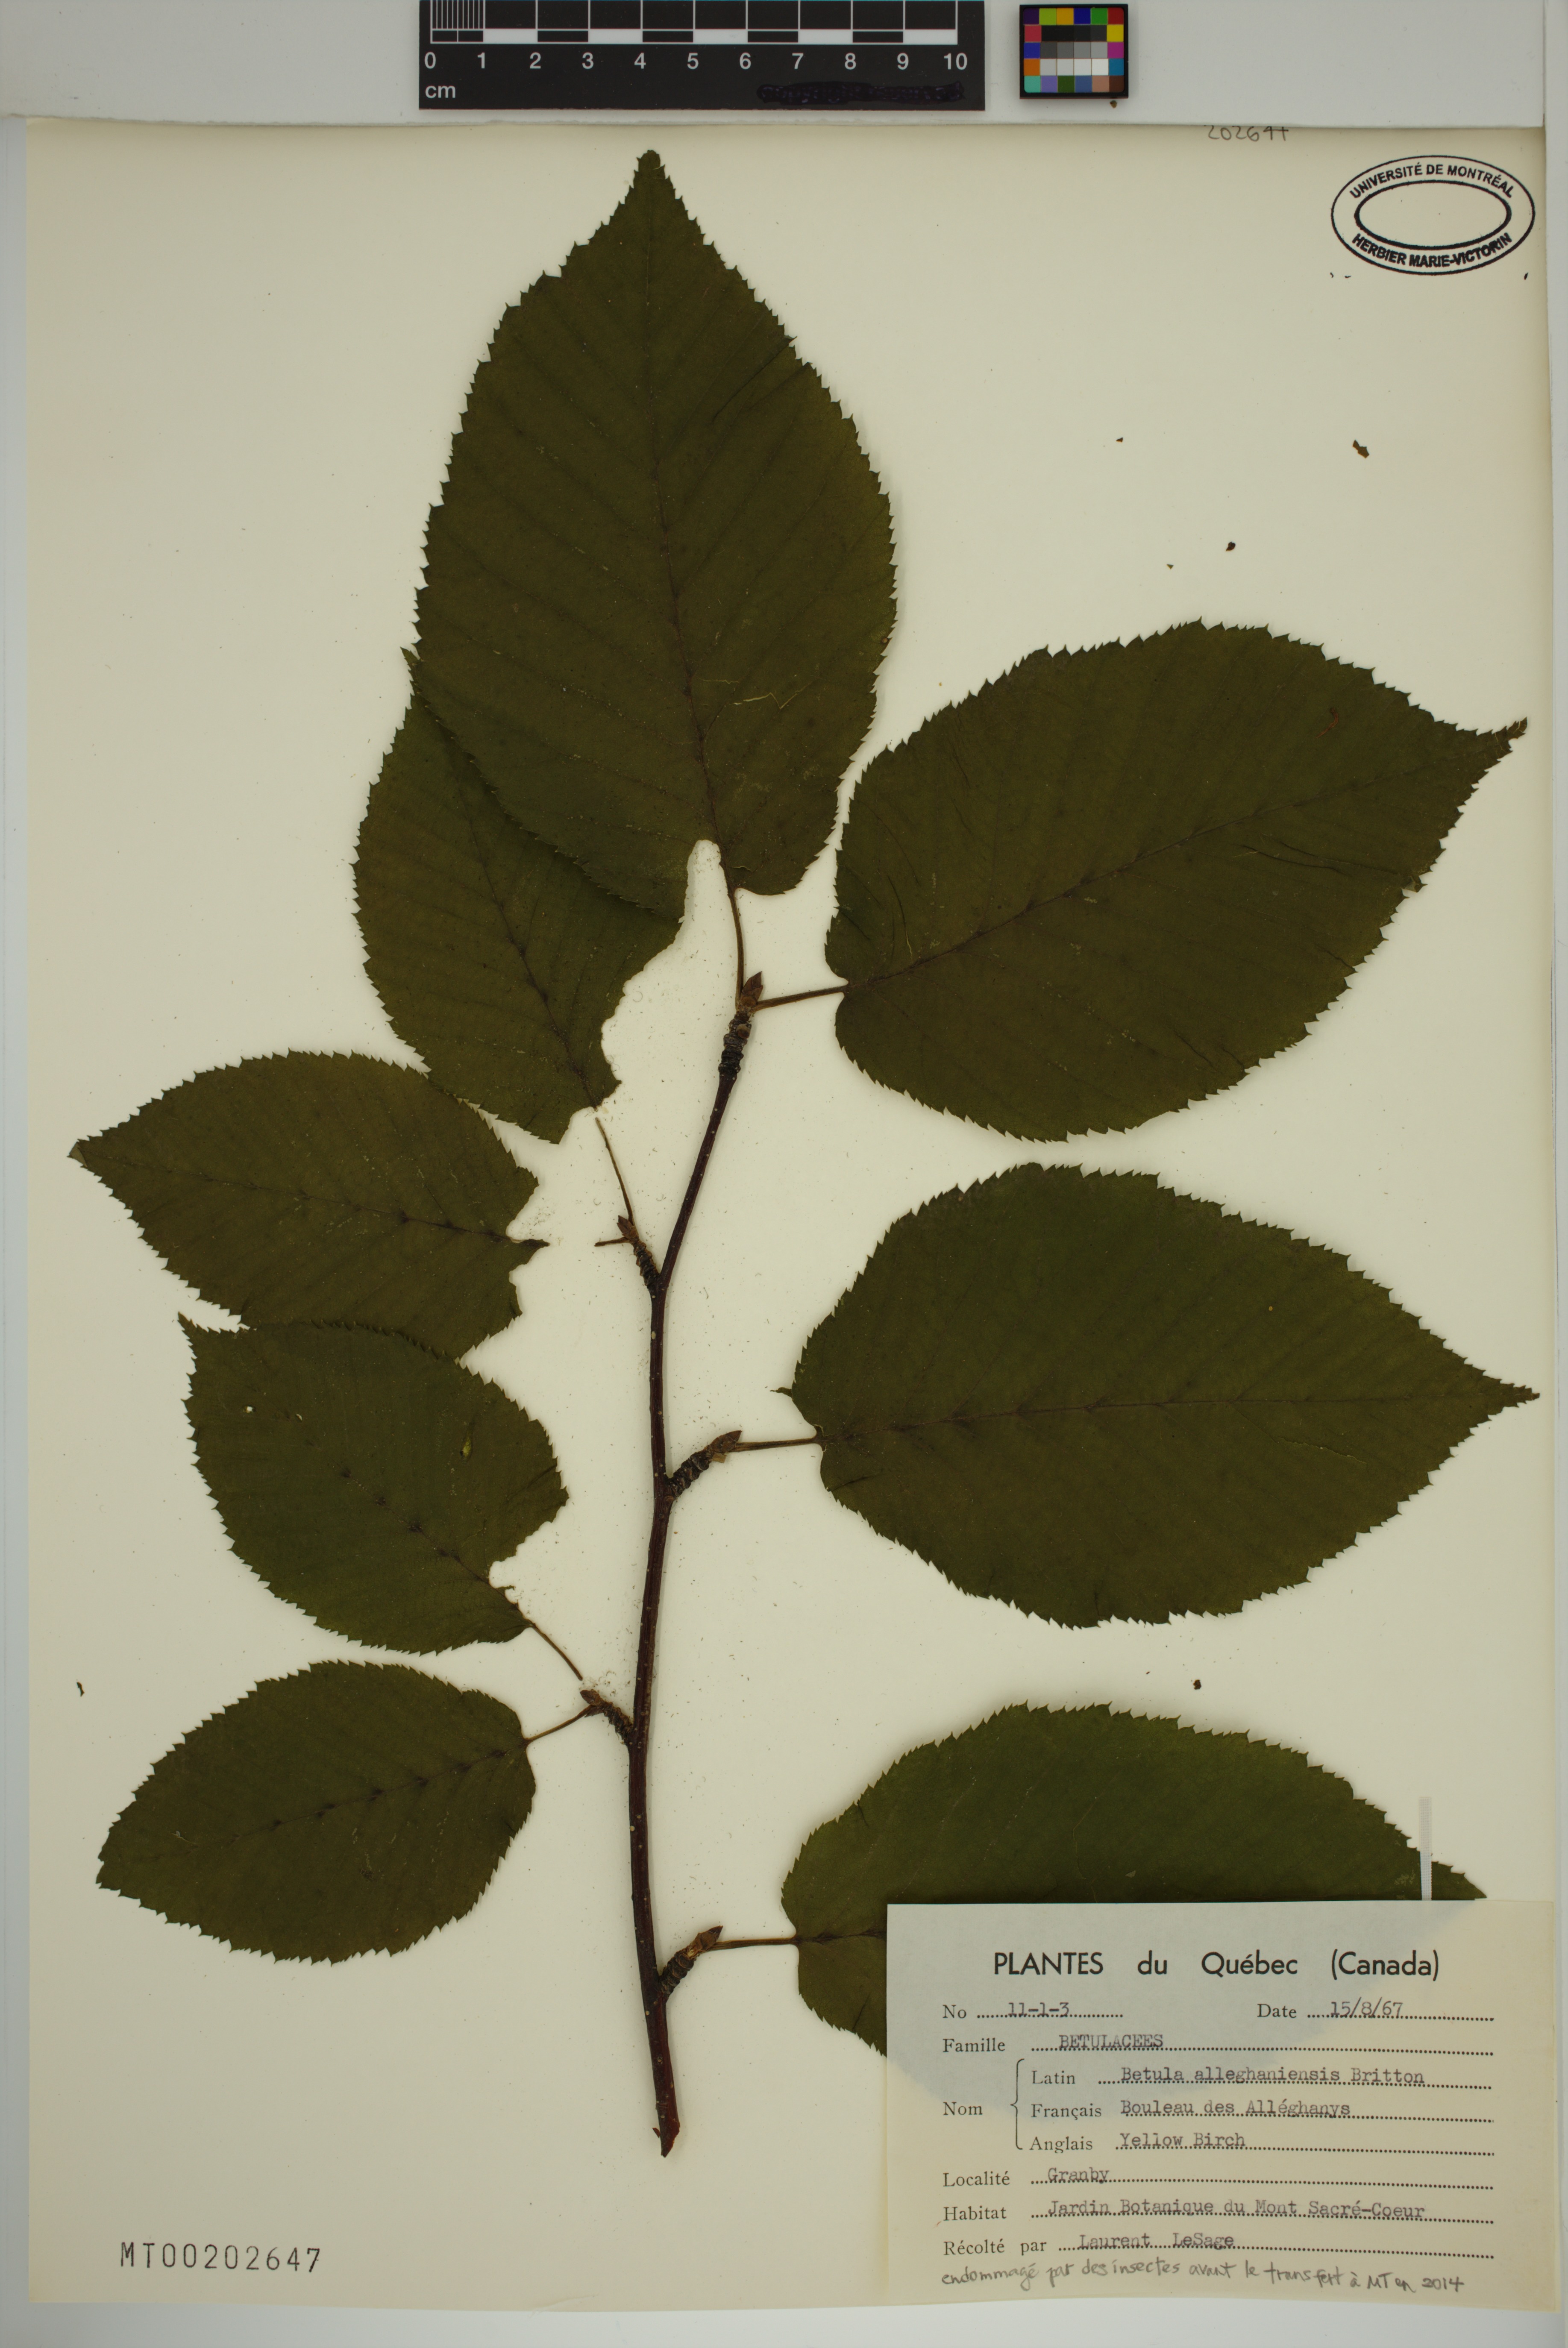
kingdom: Plantae
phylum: Tracheophyta
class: Magnoliopsida
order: Fagales
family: Betulaceae
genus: Betula
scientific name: Betula alleghaniensis
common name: Yellow birch
